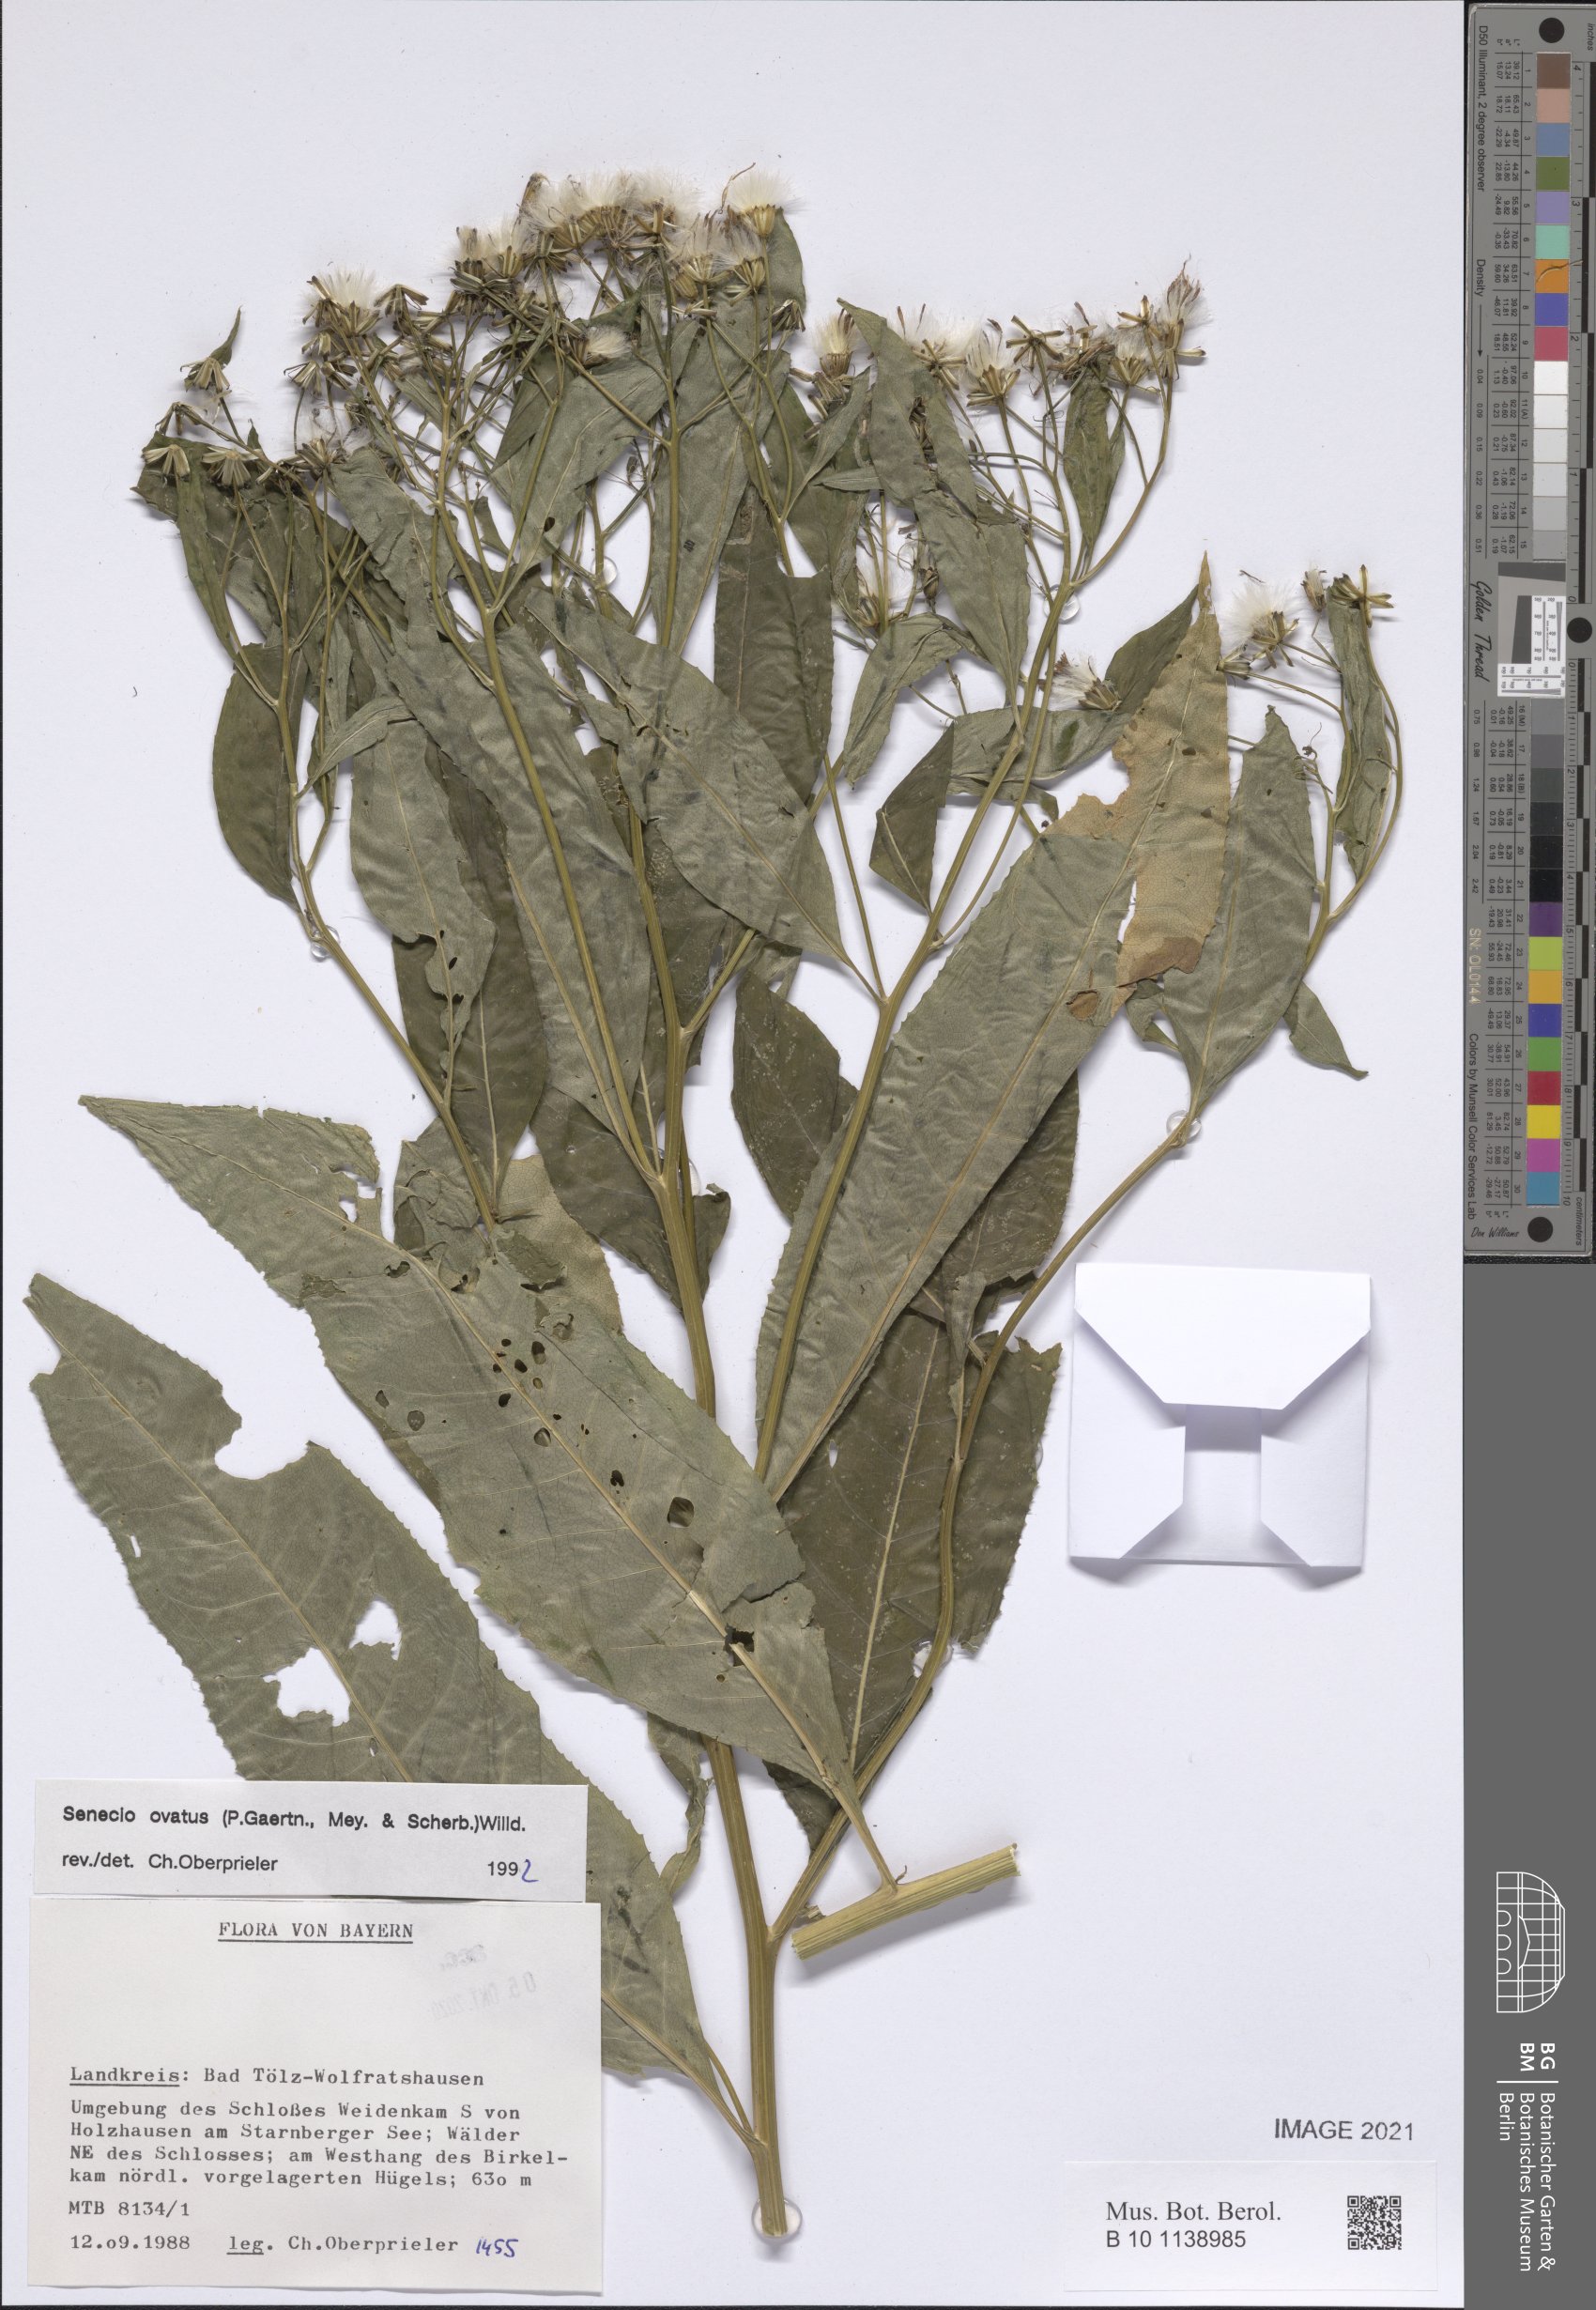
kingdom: Plantae
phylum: Tracheophyta
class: Magnoliopsida
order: Asterales
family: Asteraceae
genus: Senecio
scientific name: Senecio ovatus
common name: Wood ragwort
